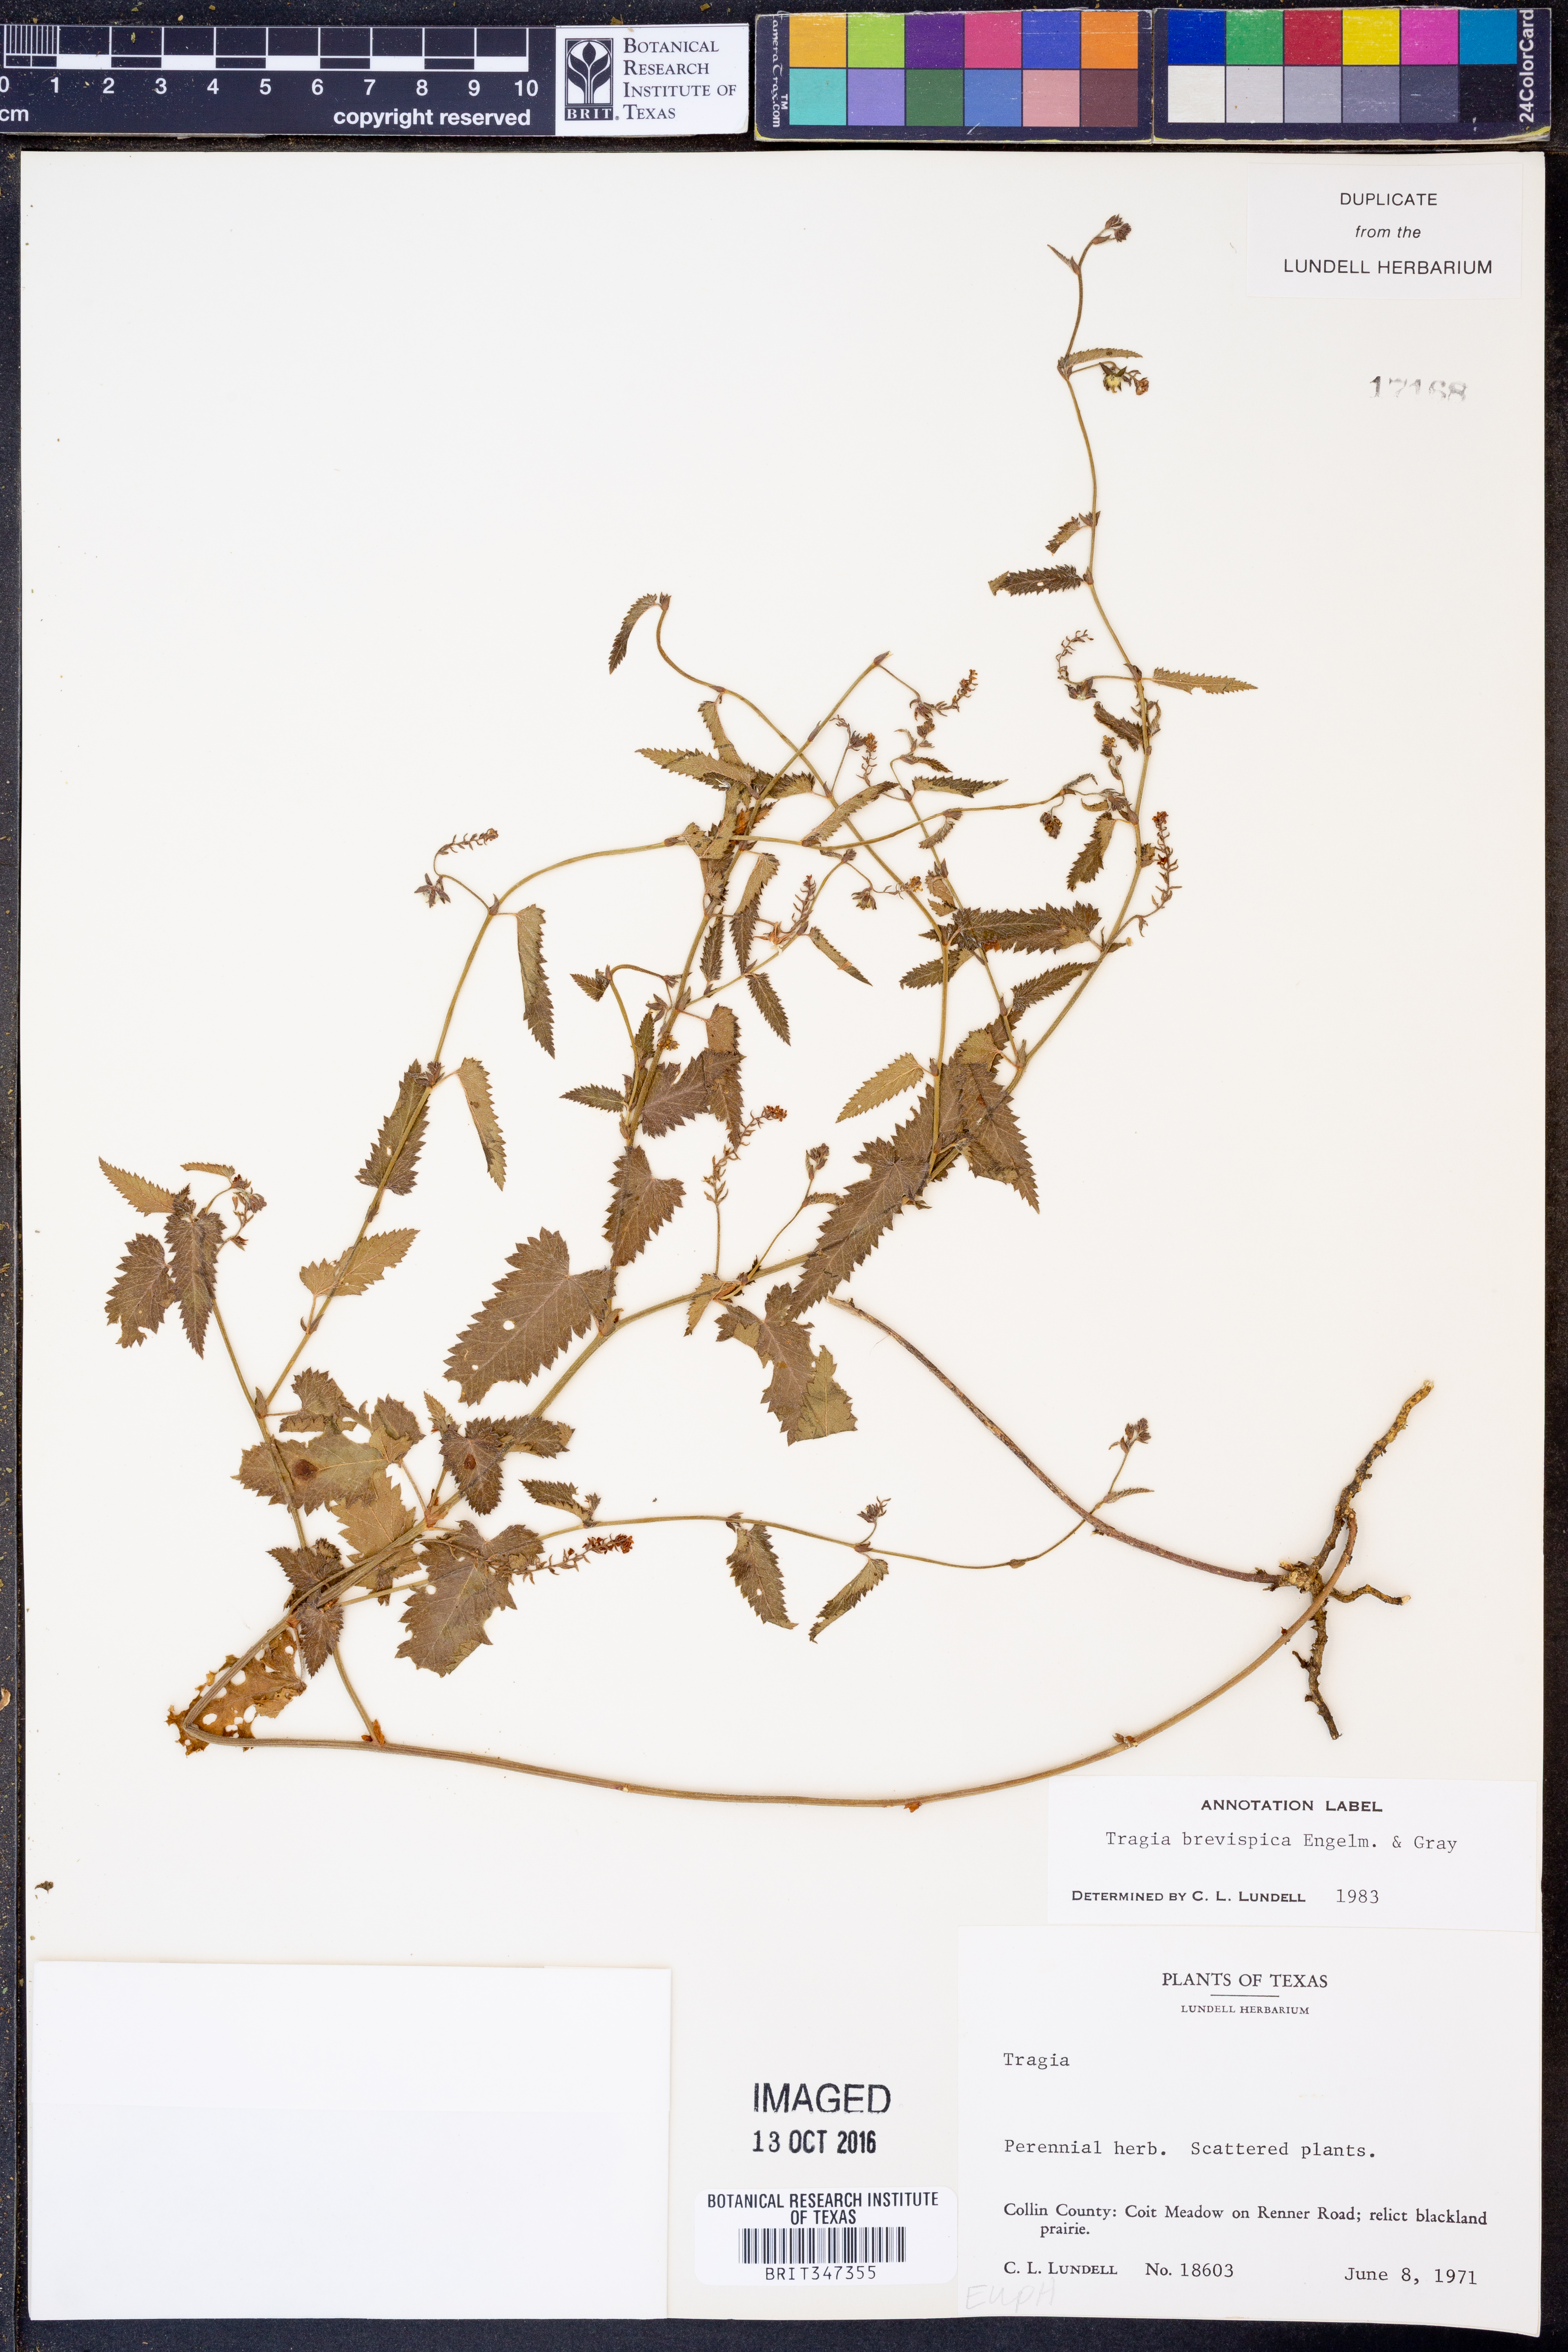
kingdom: Plantae
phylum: Tracheophyta
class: Magnoliopsida
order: Malpighiales
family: Euphorbiaceae
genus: Tragia
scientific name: Tragia brevispica
